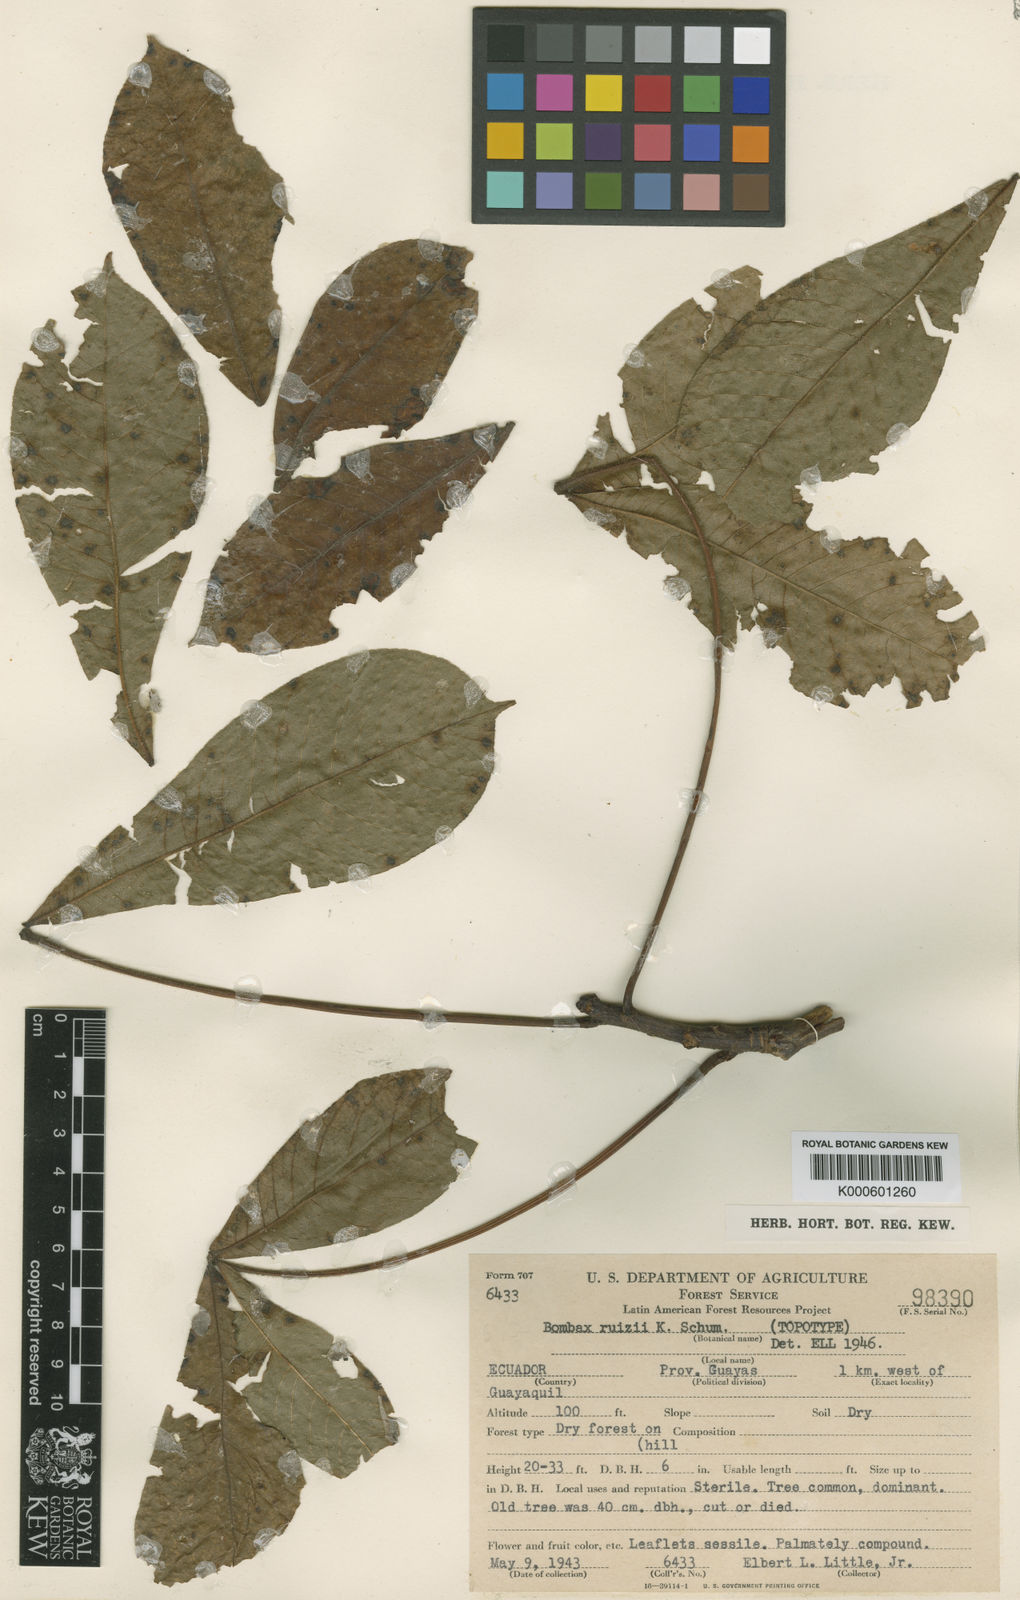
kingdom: Plantae
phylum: Tracheophyta
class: Magnoliopsida
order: Malvales
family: Malvaceae
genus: Eriotheca
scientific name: Eriotheca ruizii
